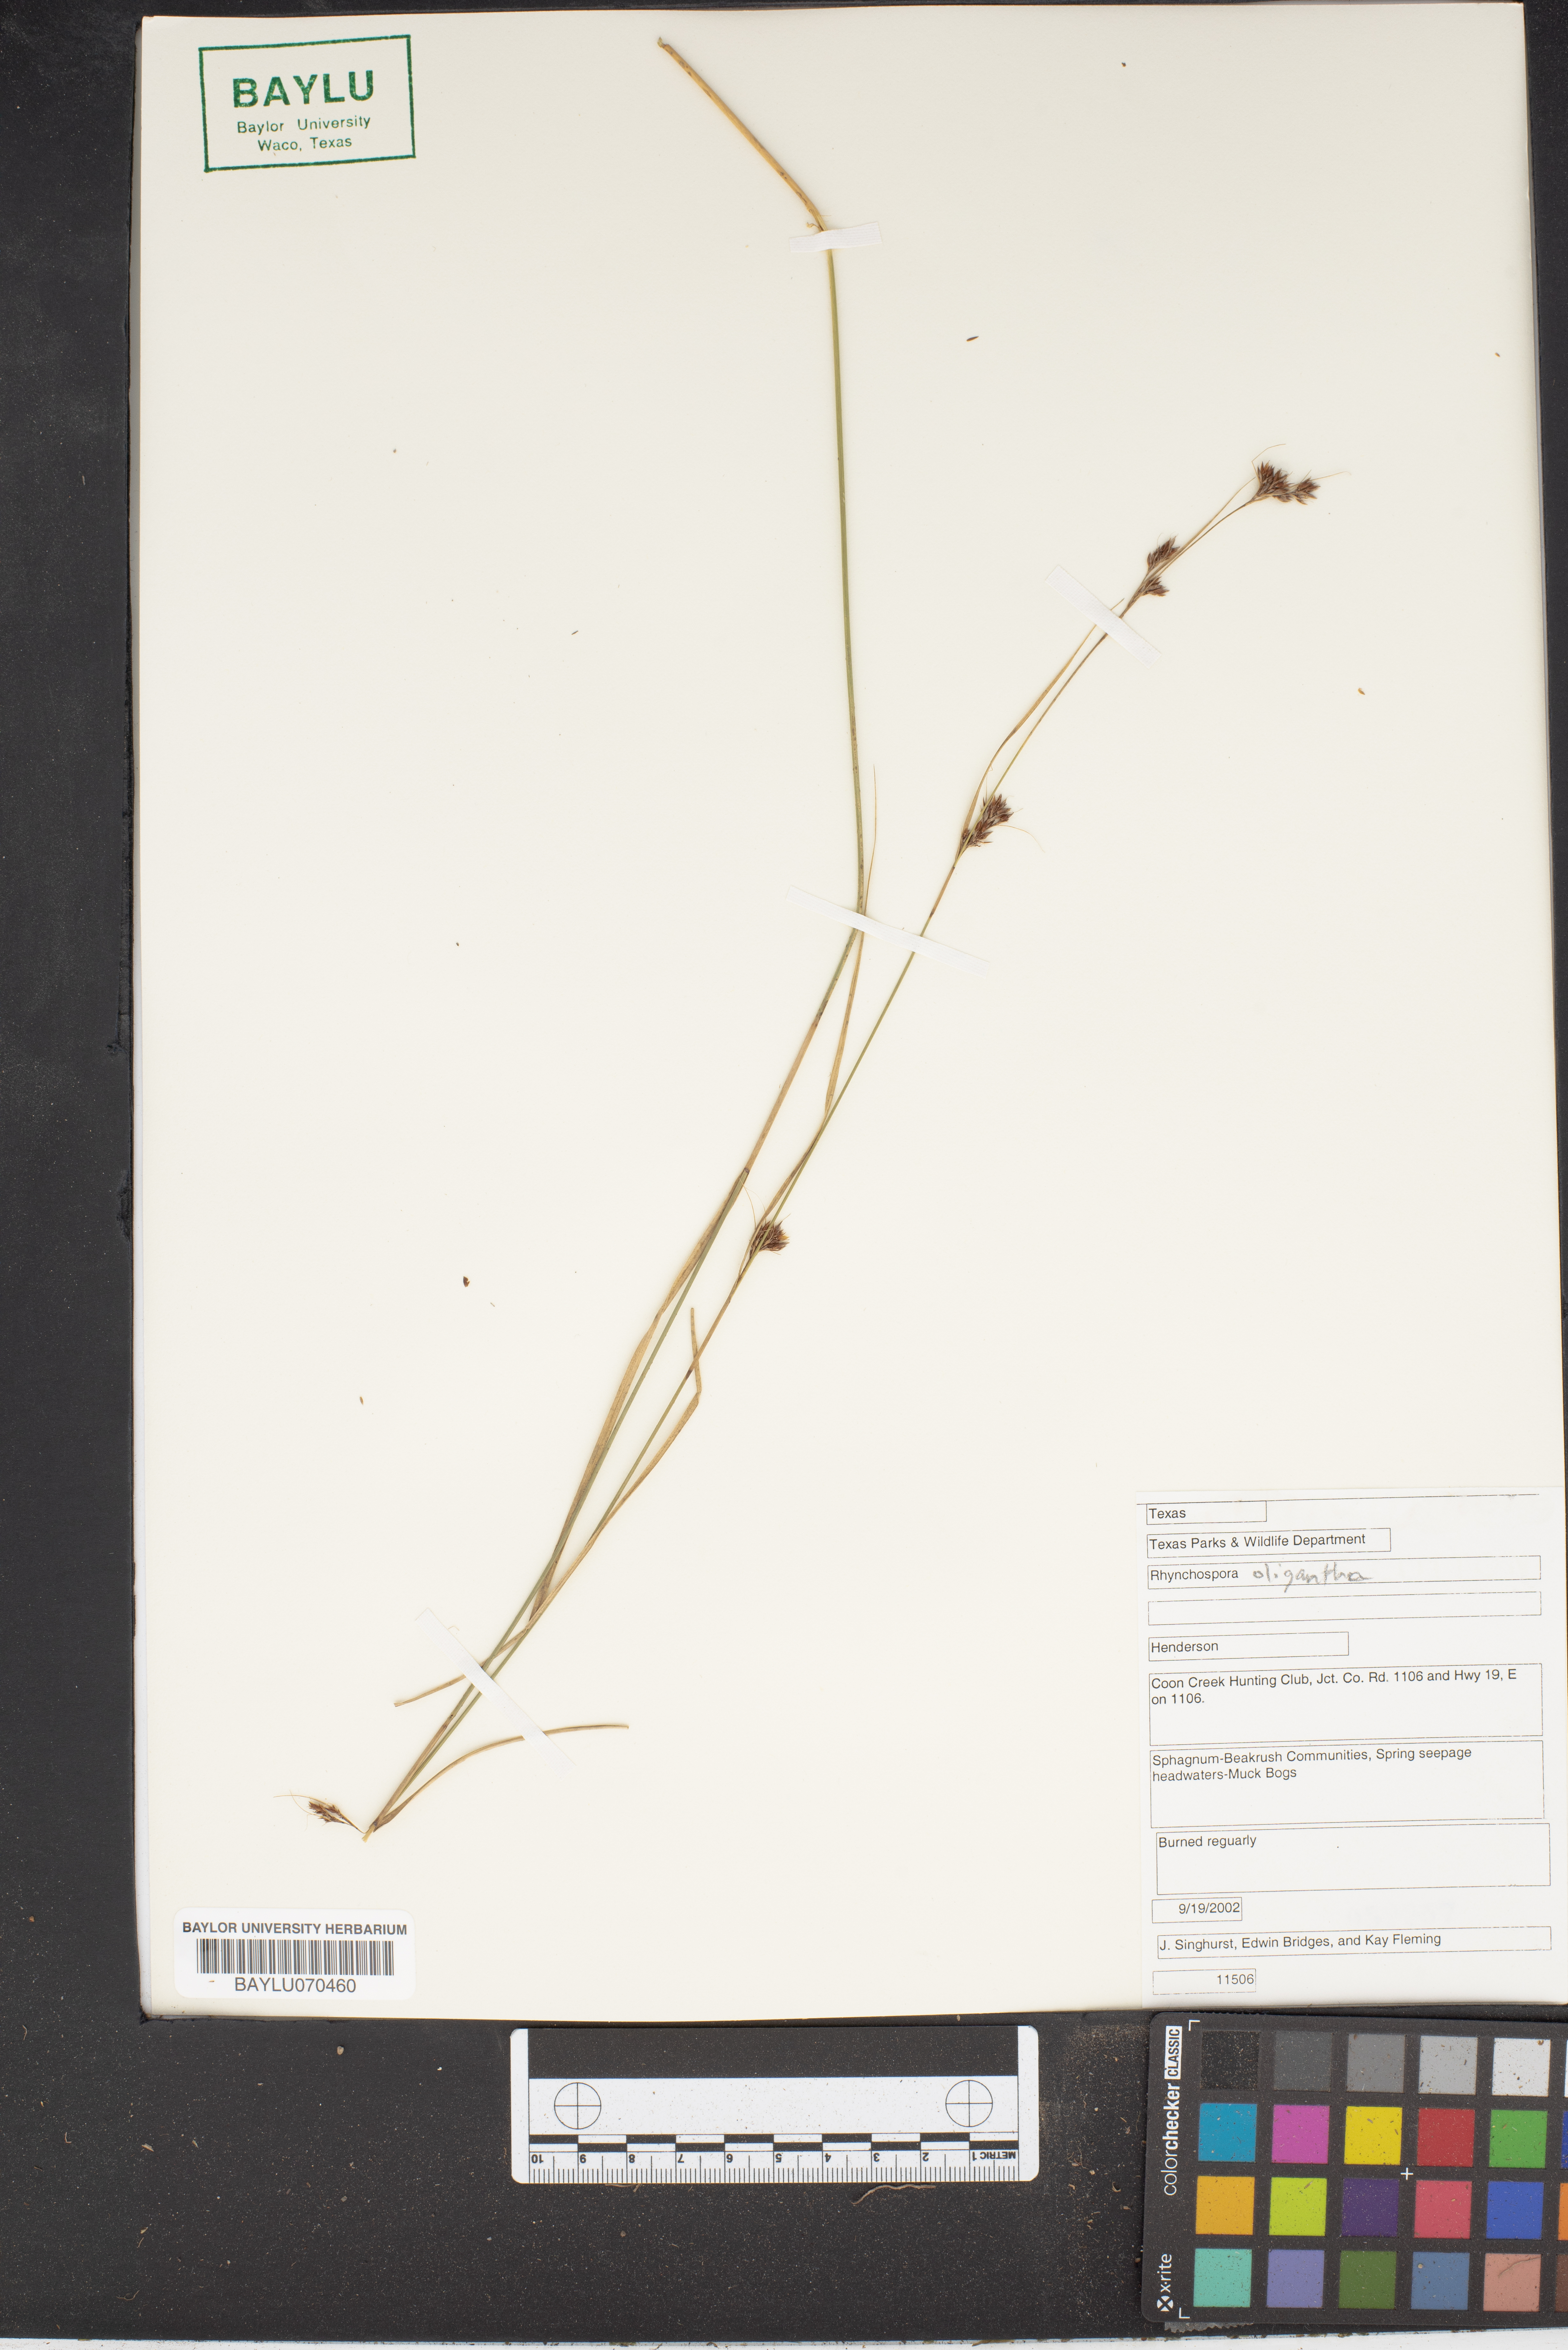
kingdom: Plantae
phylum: Tracheophyta
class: Liliopsida
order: Poales
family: Cyperaceae
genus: Rhynchospora
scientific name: Rhynchospora oligantha
